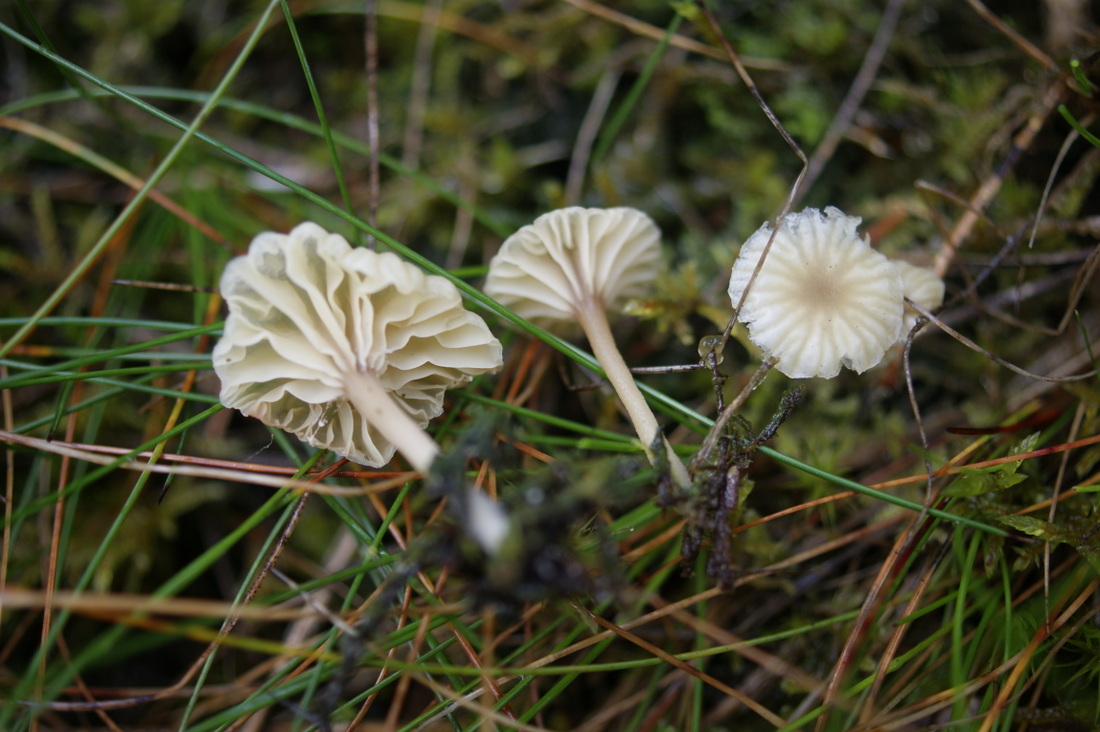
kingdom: Fungi
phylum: Basidiomycota
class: Agaricomycetes
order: Agaricales
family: Hygrophoraceae
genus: Lichenomphalia
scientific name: Lichenomphalia umbellifera
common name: tørve-lavhat
